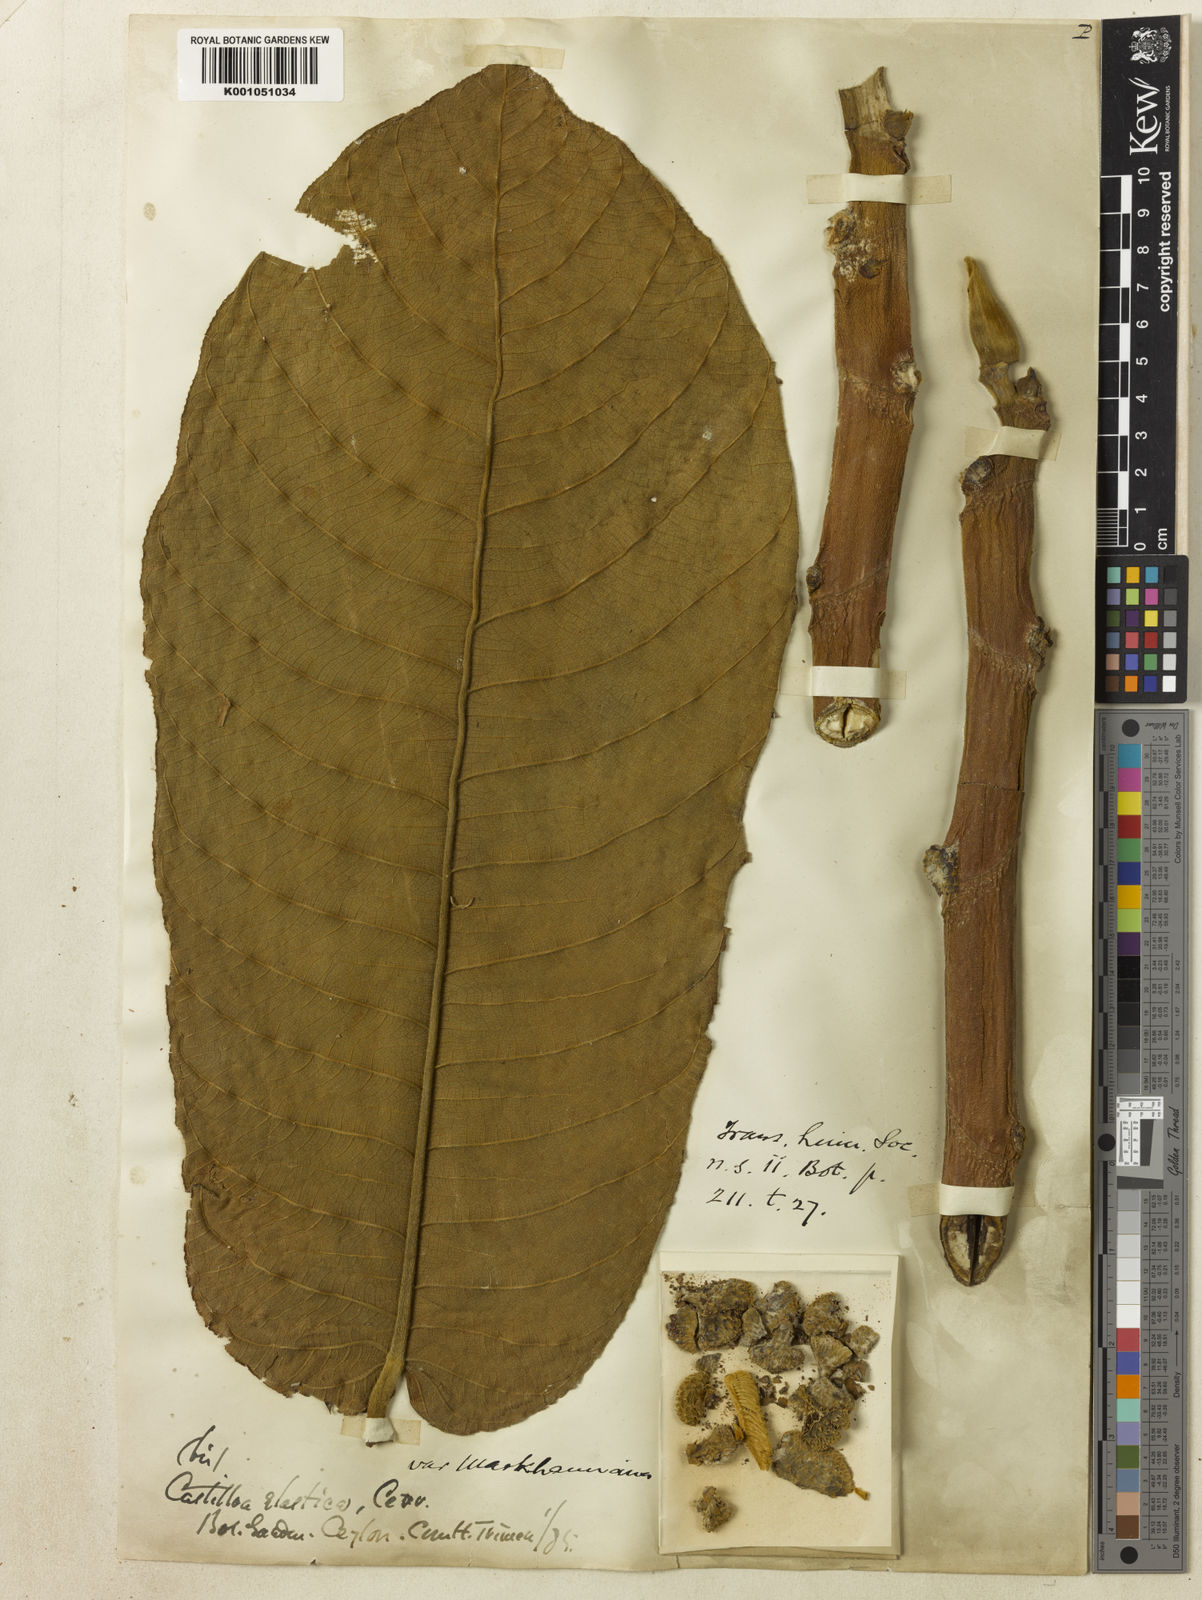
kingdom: Plantae
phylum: Tracheophyta
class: Magnoliopsida
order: Rosales
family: Moraceae
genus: Castilla
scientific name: Castilla elastica
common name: Castilla rubber
